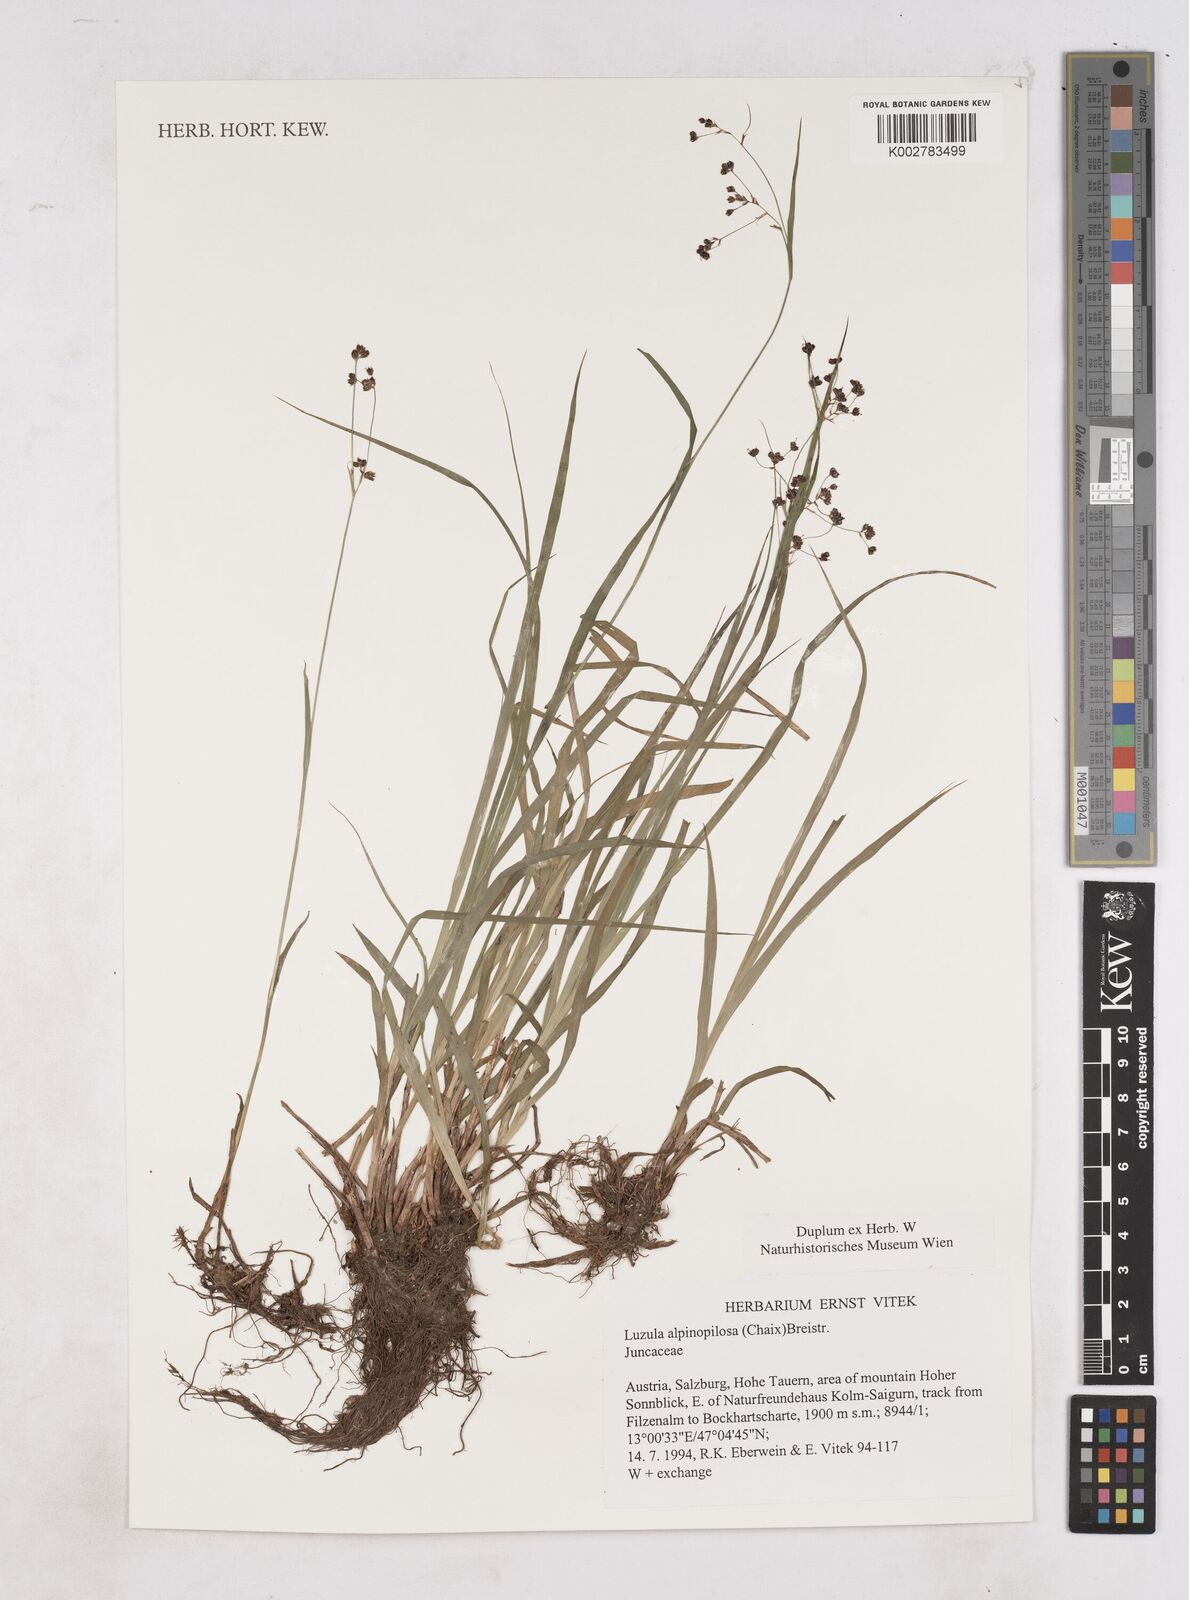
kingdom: Plantae
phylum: Tracheophyta
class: Liliopsida
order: Poales
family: Juncaceae
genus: Luzula
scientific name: Luzula alpinopilosa
